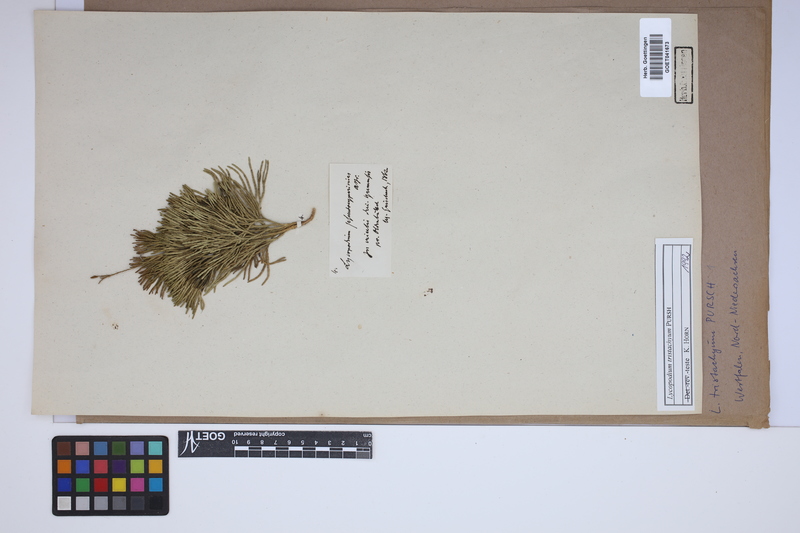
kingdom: Plantae
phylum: Tracheophyta
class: Lycopodiopsida
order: Lycopodiales
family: Lycopodiaceae
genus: Diphasiastrum
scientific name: Diphasiastrum tristachyum
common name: Blue ground-cedar
